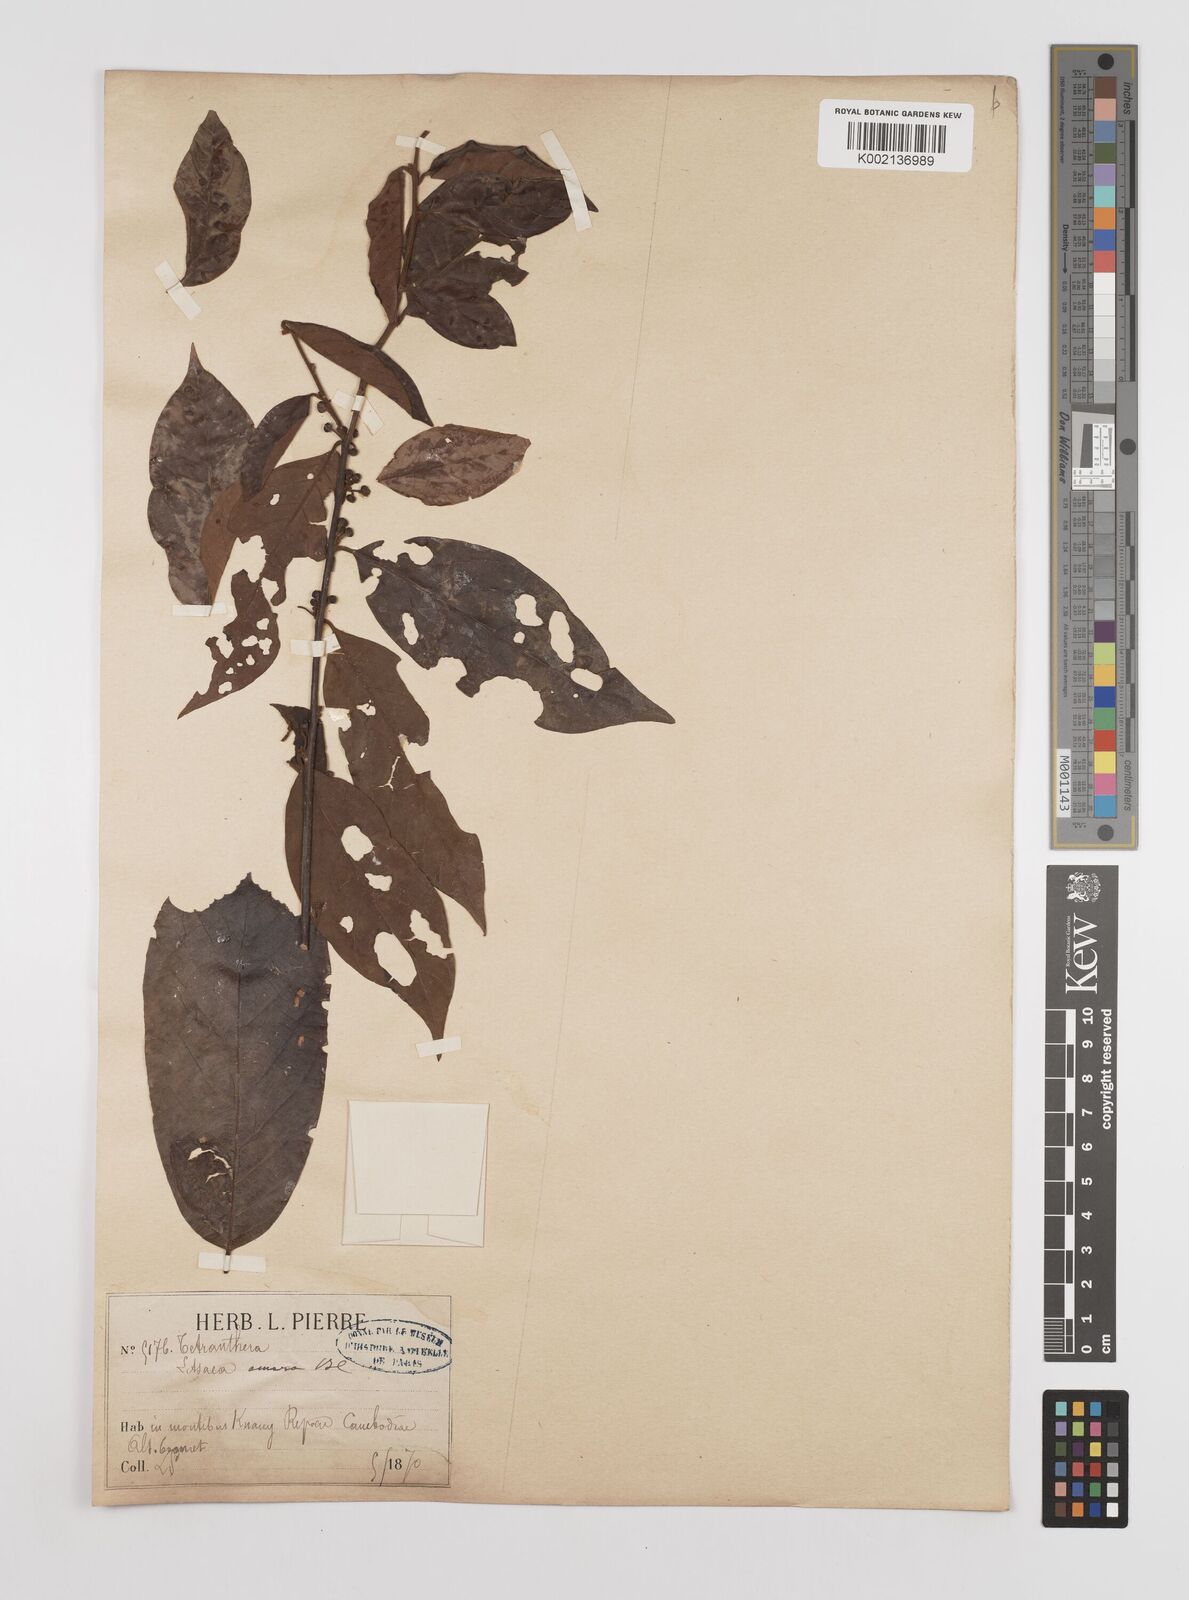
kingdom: Plantae
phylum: Tracheophyta
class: Magnoliopsida
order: Laurales
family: Lauraceae
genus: Litsea
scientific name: Litsea umbellata
